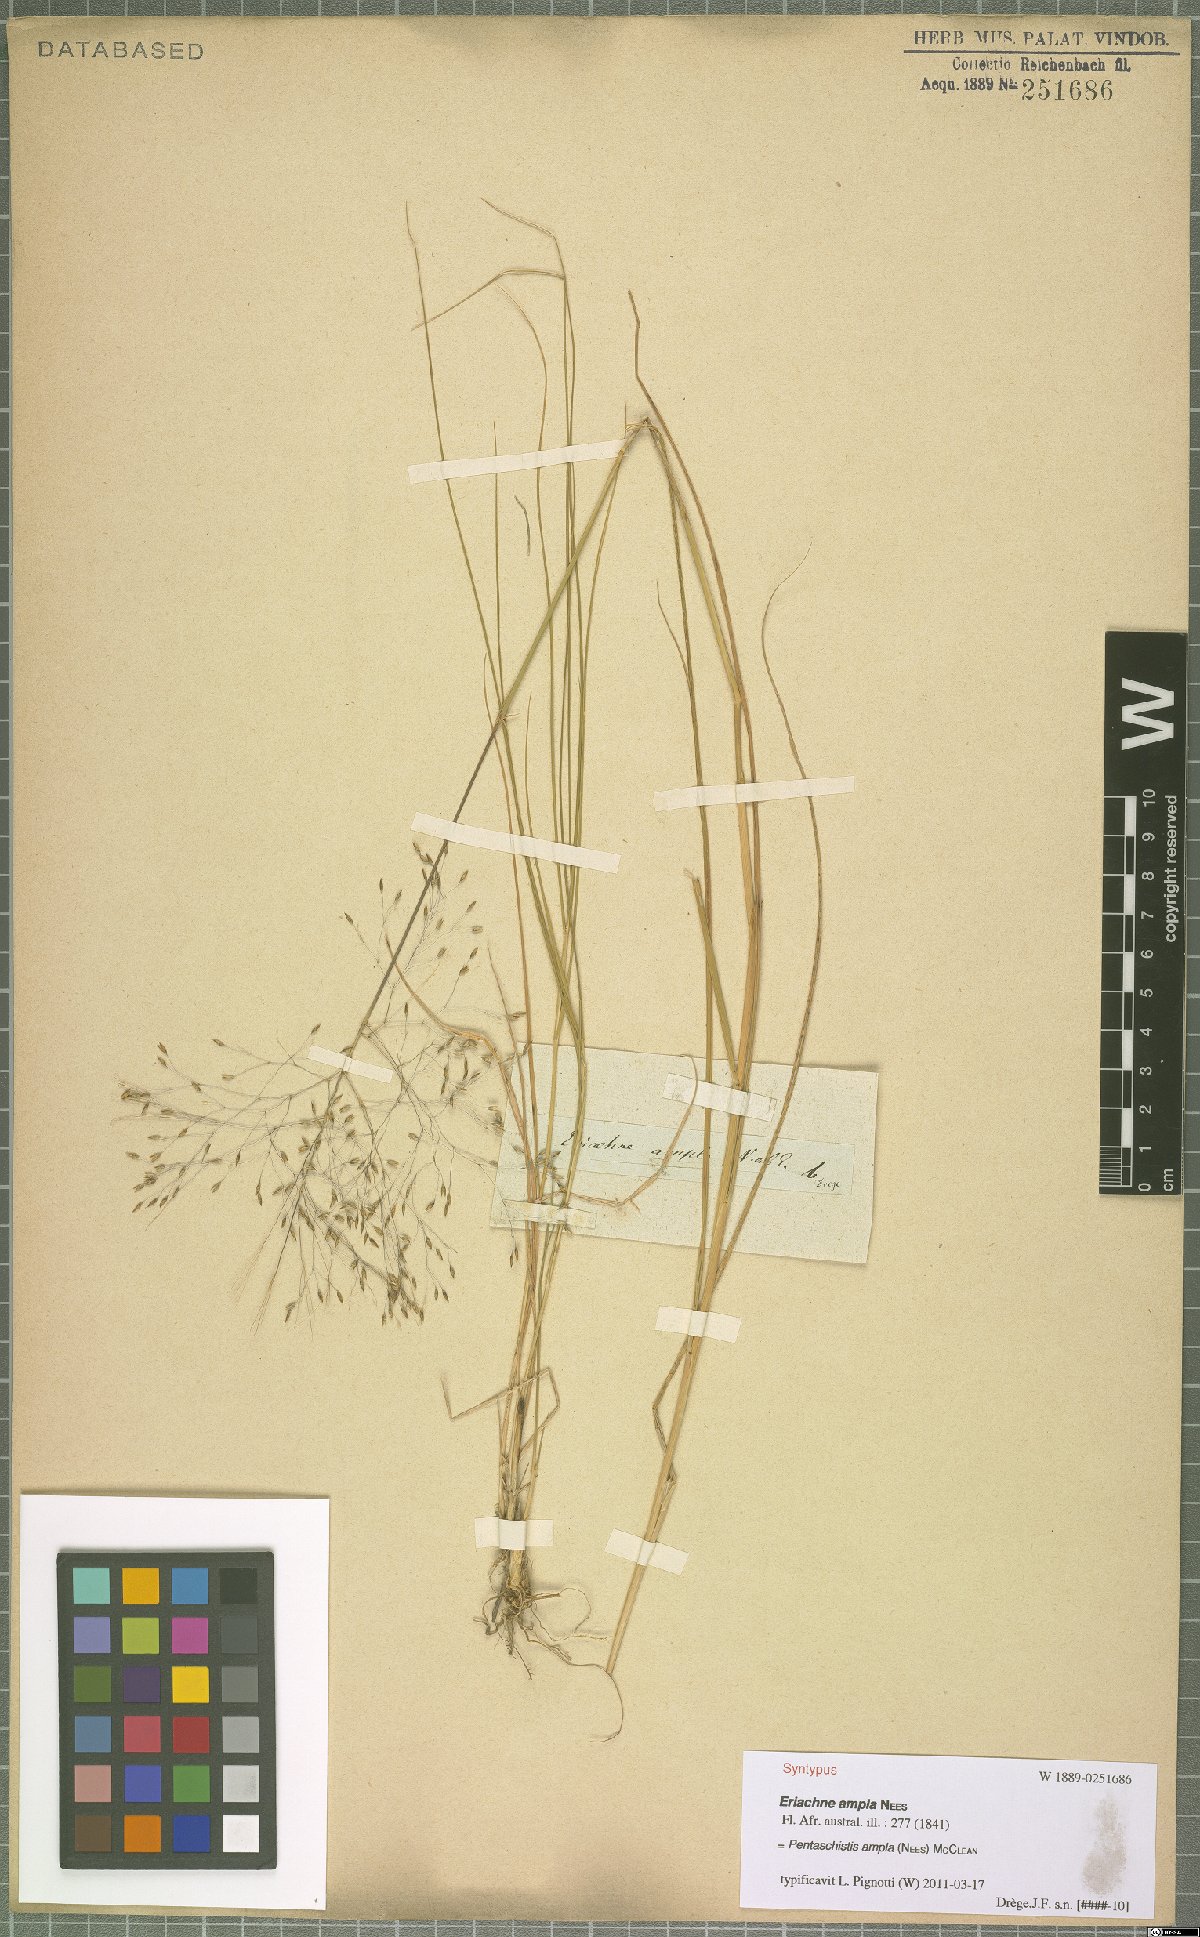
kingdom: Plantae
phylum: Tracheophyta
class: Liliopsida
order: Poales
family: Poaceae
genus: Pentameris
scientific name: Pentameris ampla
